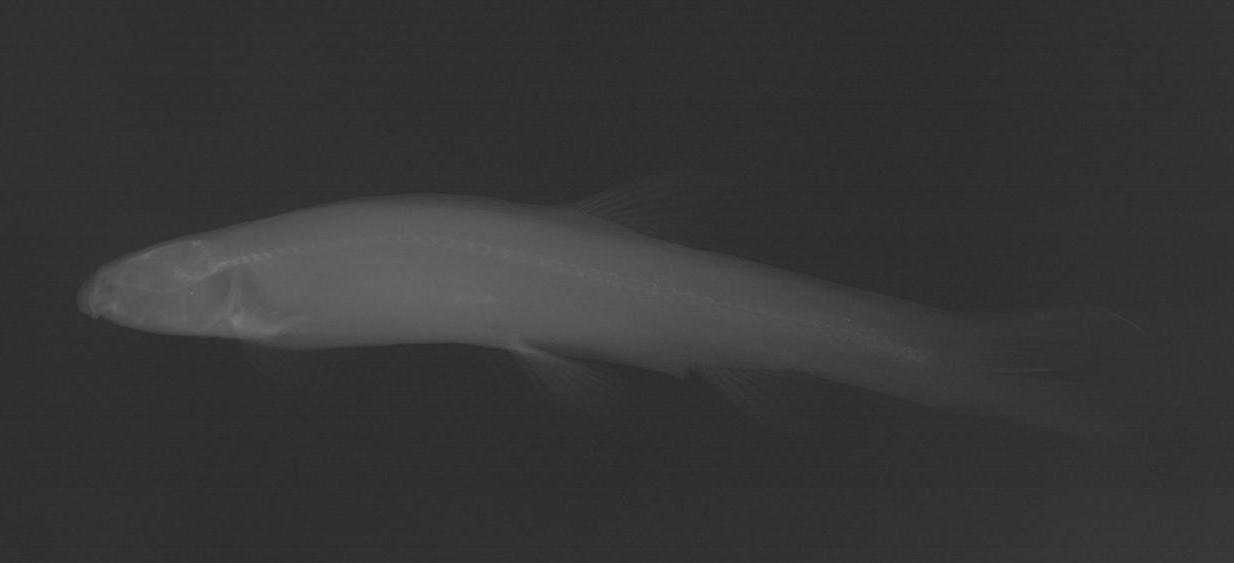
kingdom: Animalia
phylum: Chordata
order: Gonorynchiformes
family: Kneriidae
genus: Kneria
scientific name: Kneria
